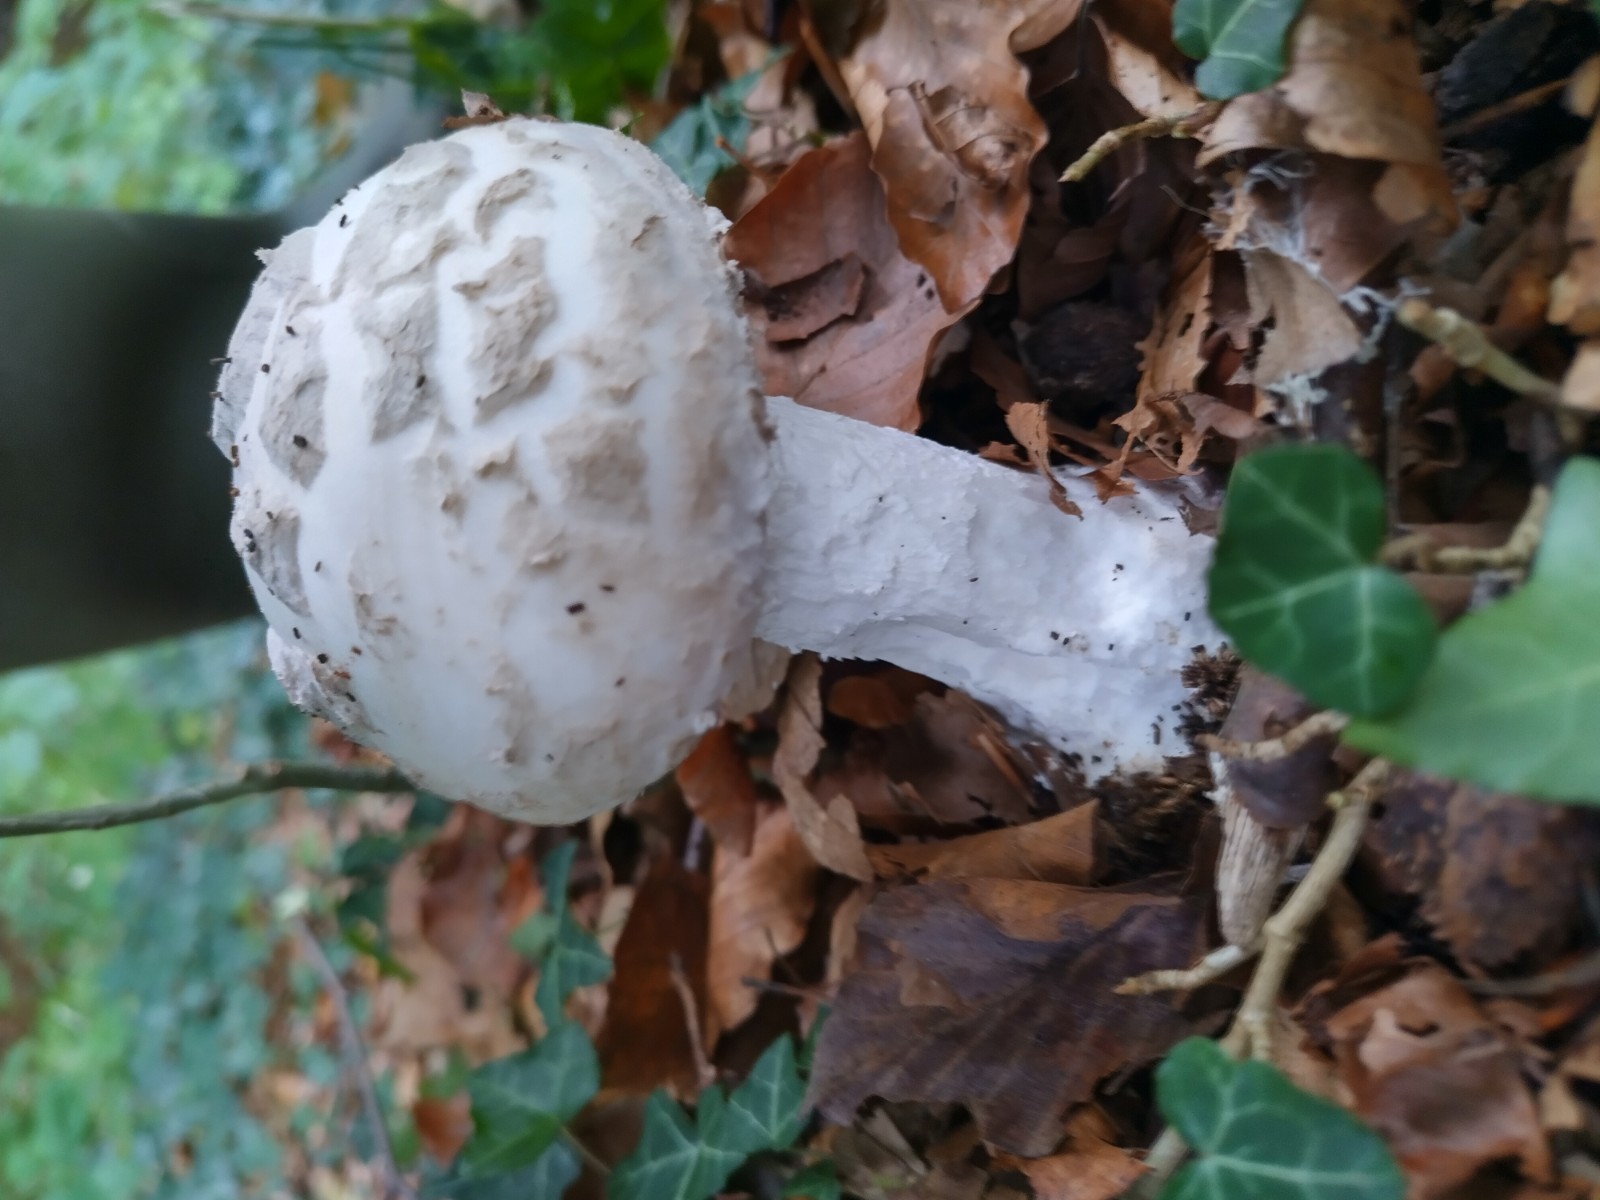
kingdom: Fungi
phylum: Basidiomycota
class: Agaricomycetes
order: Agaricales
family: Amanitaceae
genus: Amanita
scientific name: Amanita
